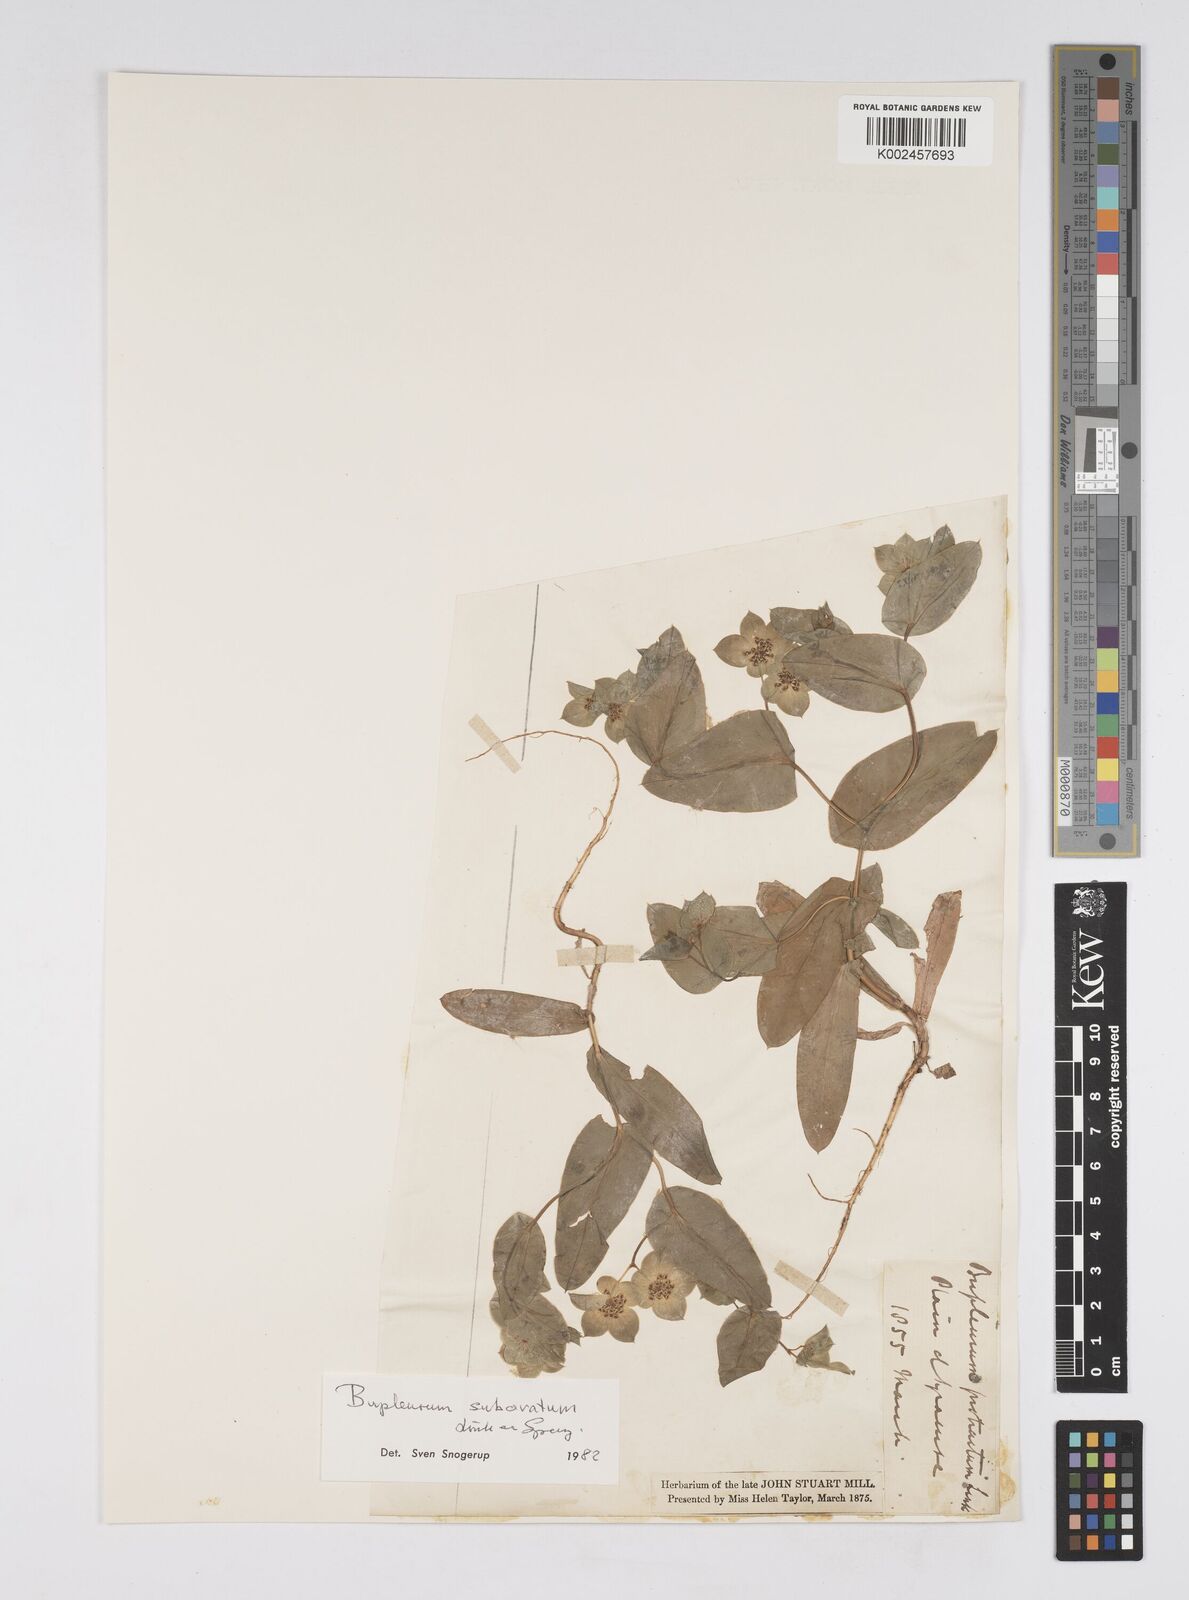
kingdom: Plantae
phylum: Tracheophyta
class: Magnoliopsida
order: Apiales
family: Apiaceae
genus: Bupleurum
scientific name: Bupleurum lancifolium
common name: False thorow-wax
